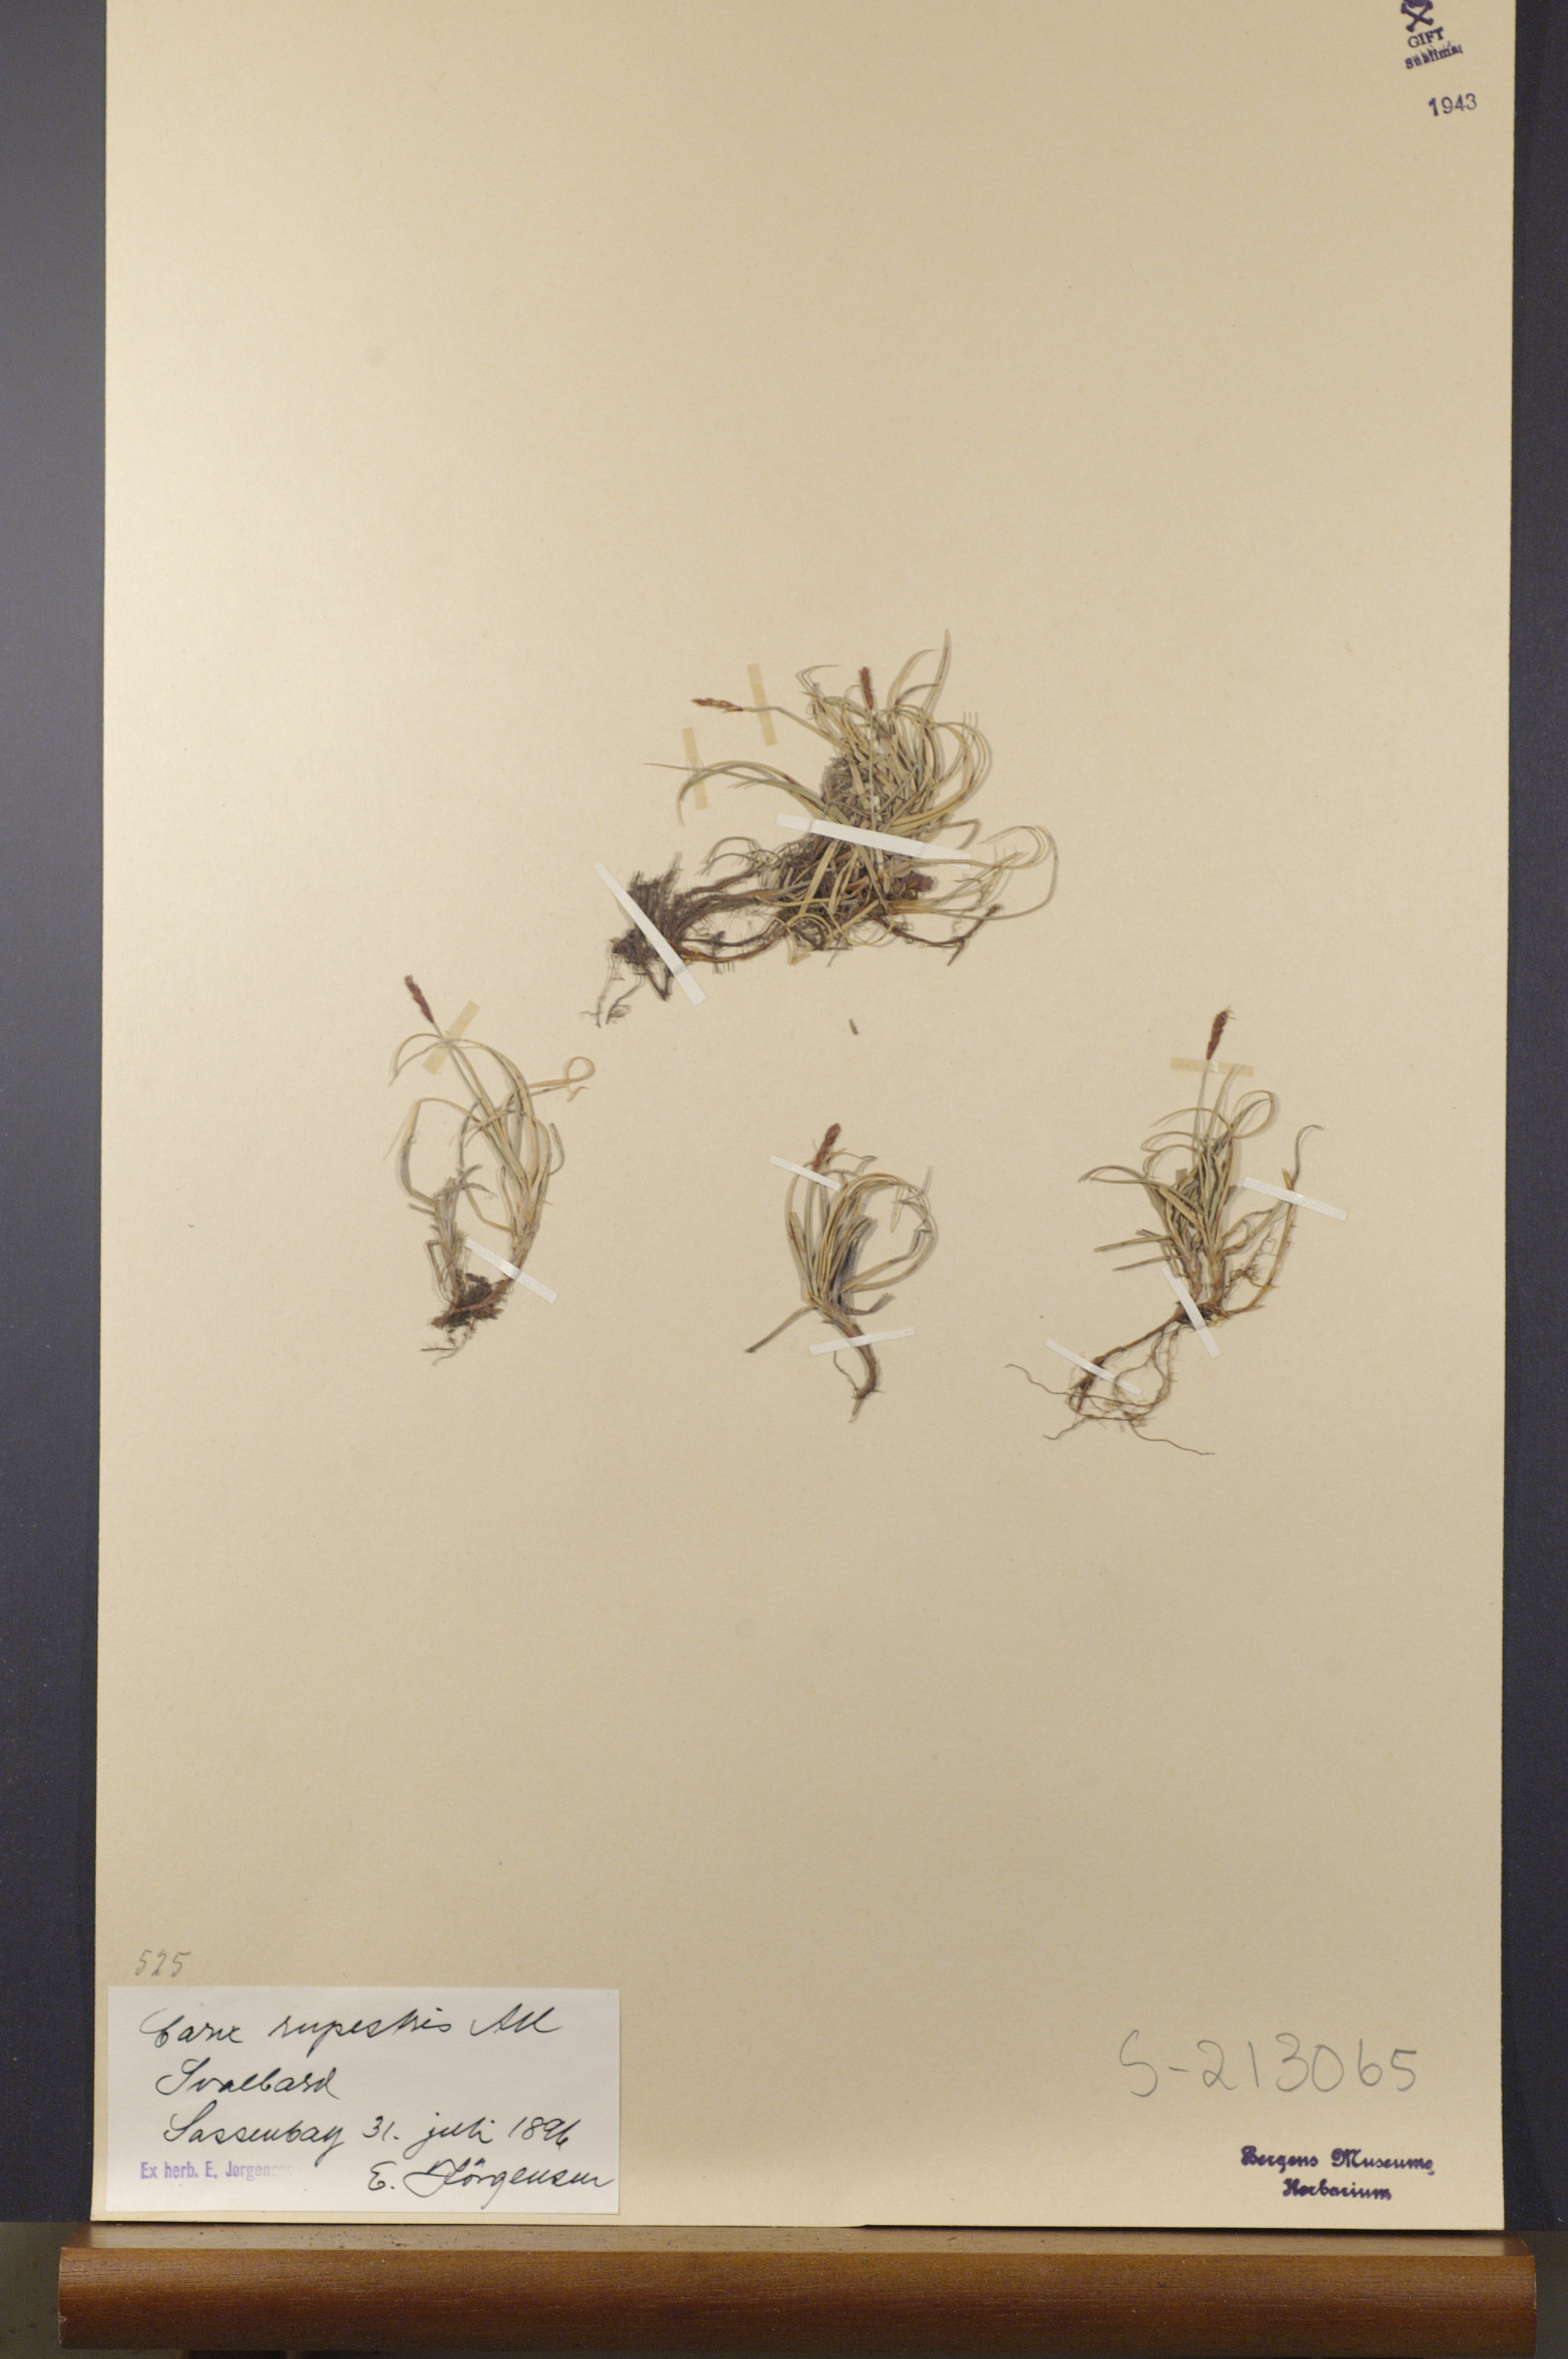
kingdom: Plantae
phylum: Tracheophyta
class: Liliopsida
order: Poales
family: Cyperaceae
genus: Carex
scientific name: Carex rupestris
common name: Rock sedge
